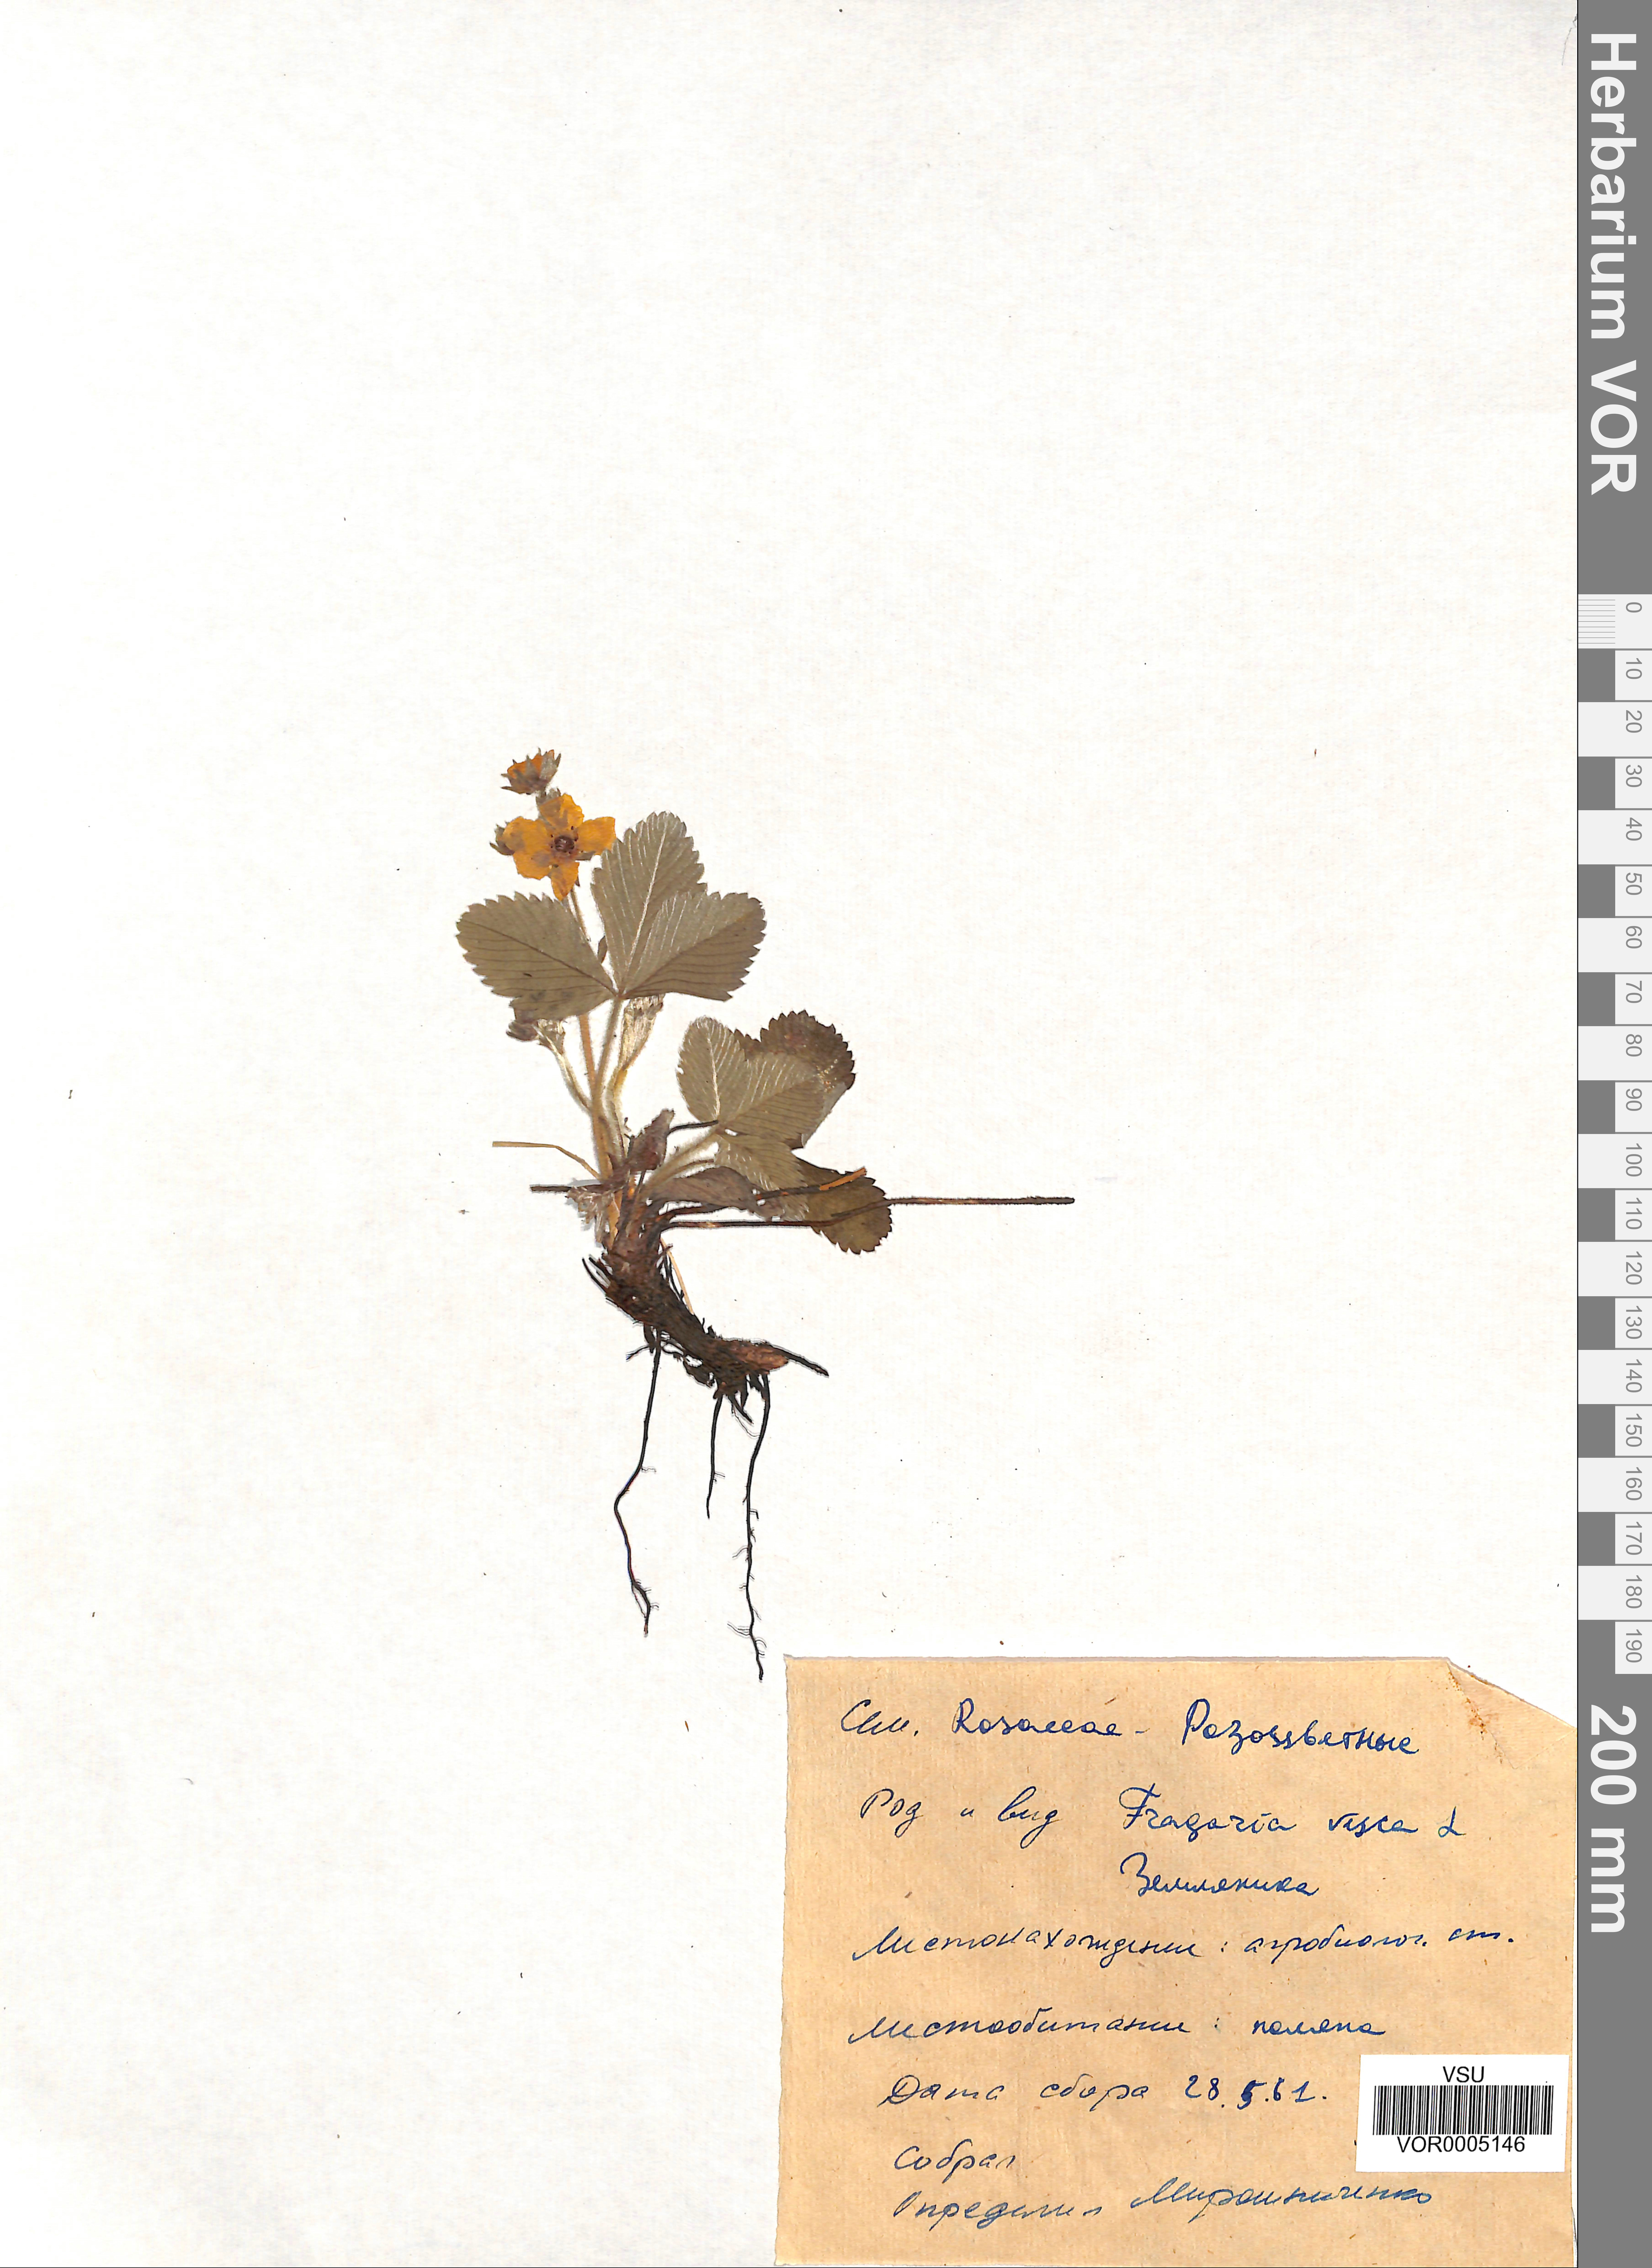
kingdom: Plantae
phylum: Tracheophyta
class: Magnoliopsida
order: Rosales
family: Rosaceae
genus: Fragaria
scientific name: Fragaria vesca
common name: Wild strawberry
